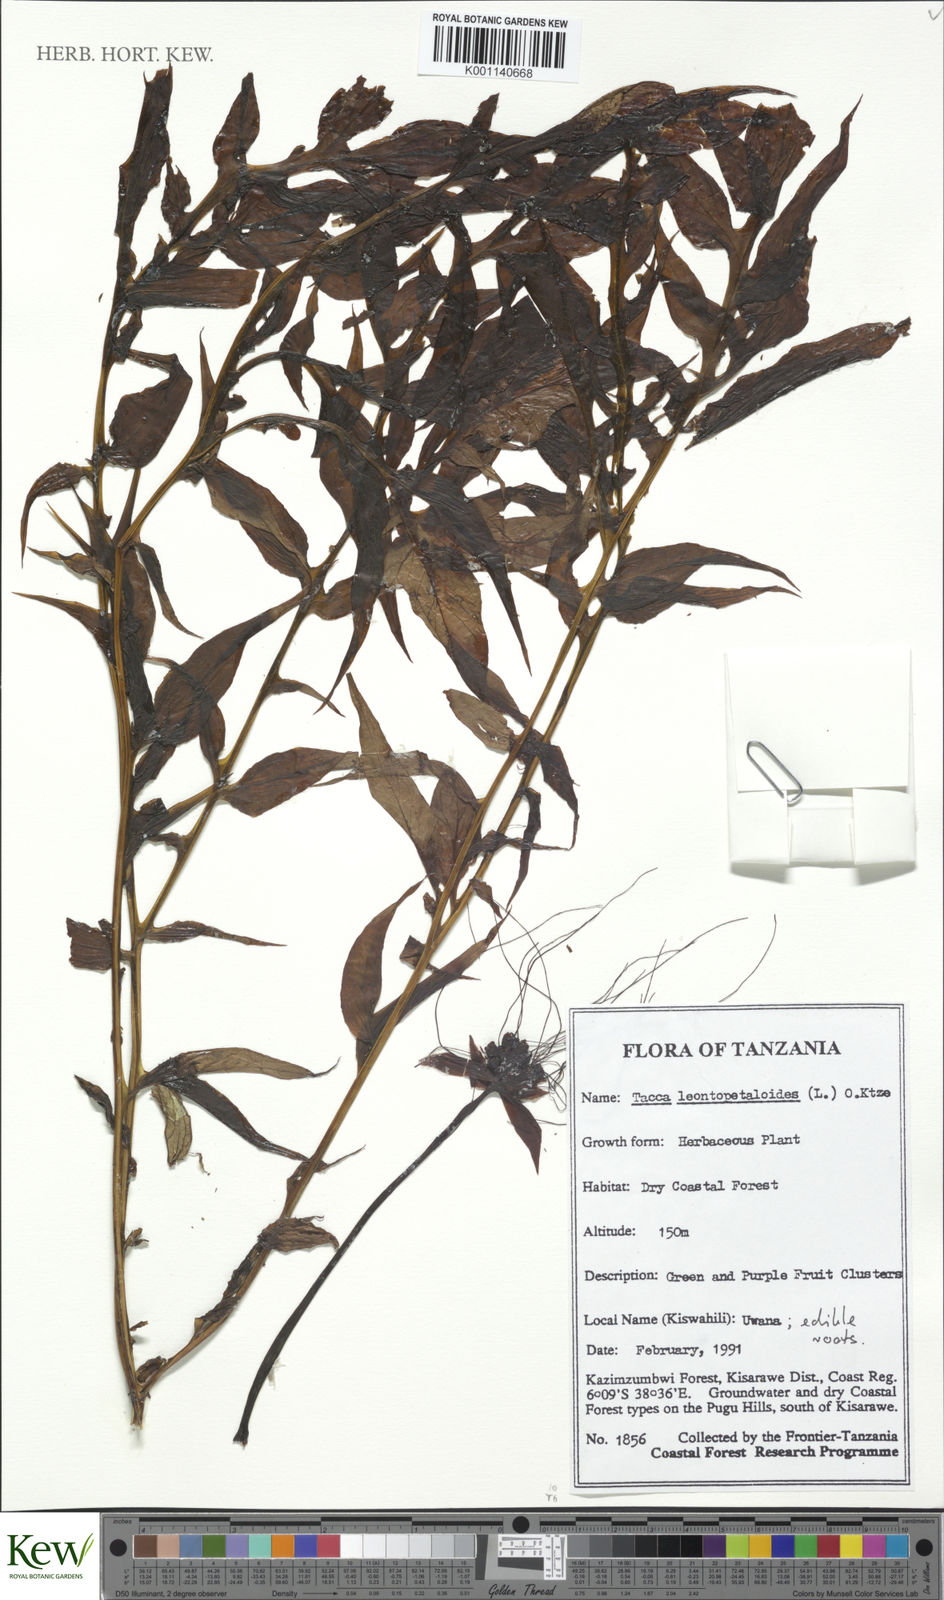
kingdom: Plantae
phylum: Tracheophyta
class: Liliopsida
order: Dioscoreales
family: Dioscoreaceae
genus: Tacca
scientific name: Tacca leontopetaloides
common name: Arrowroot
